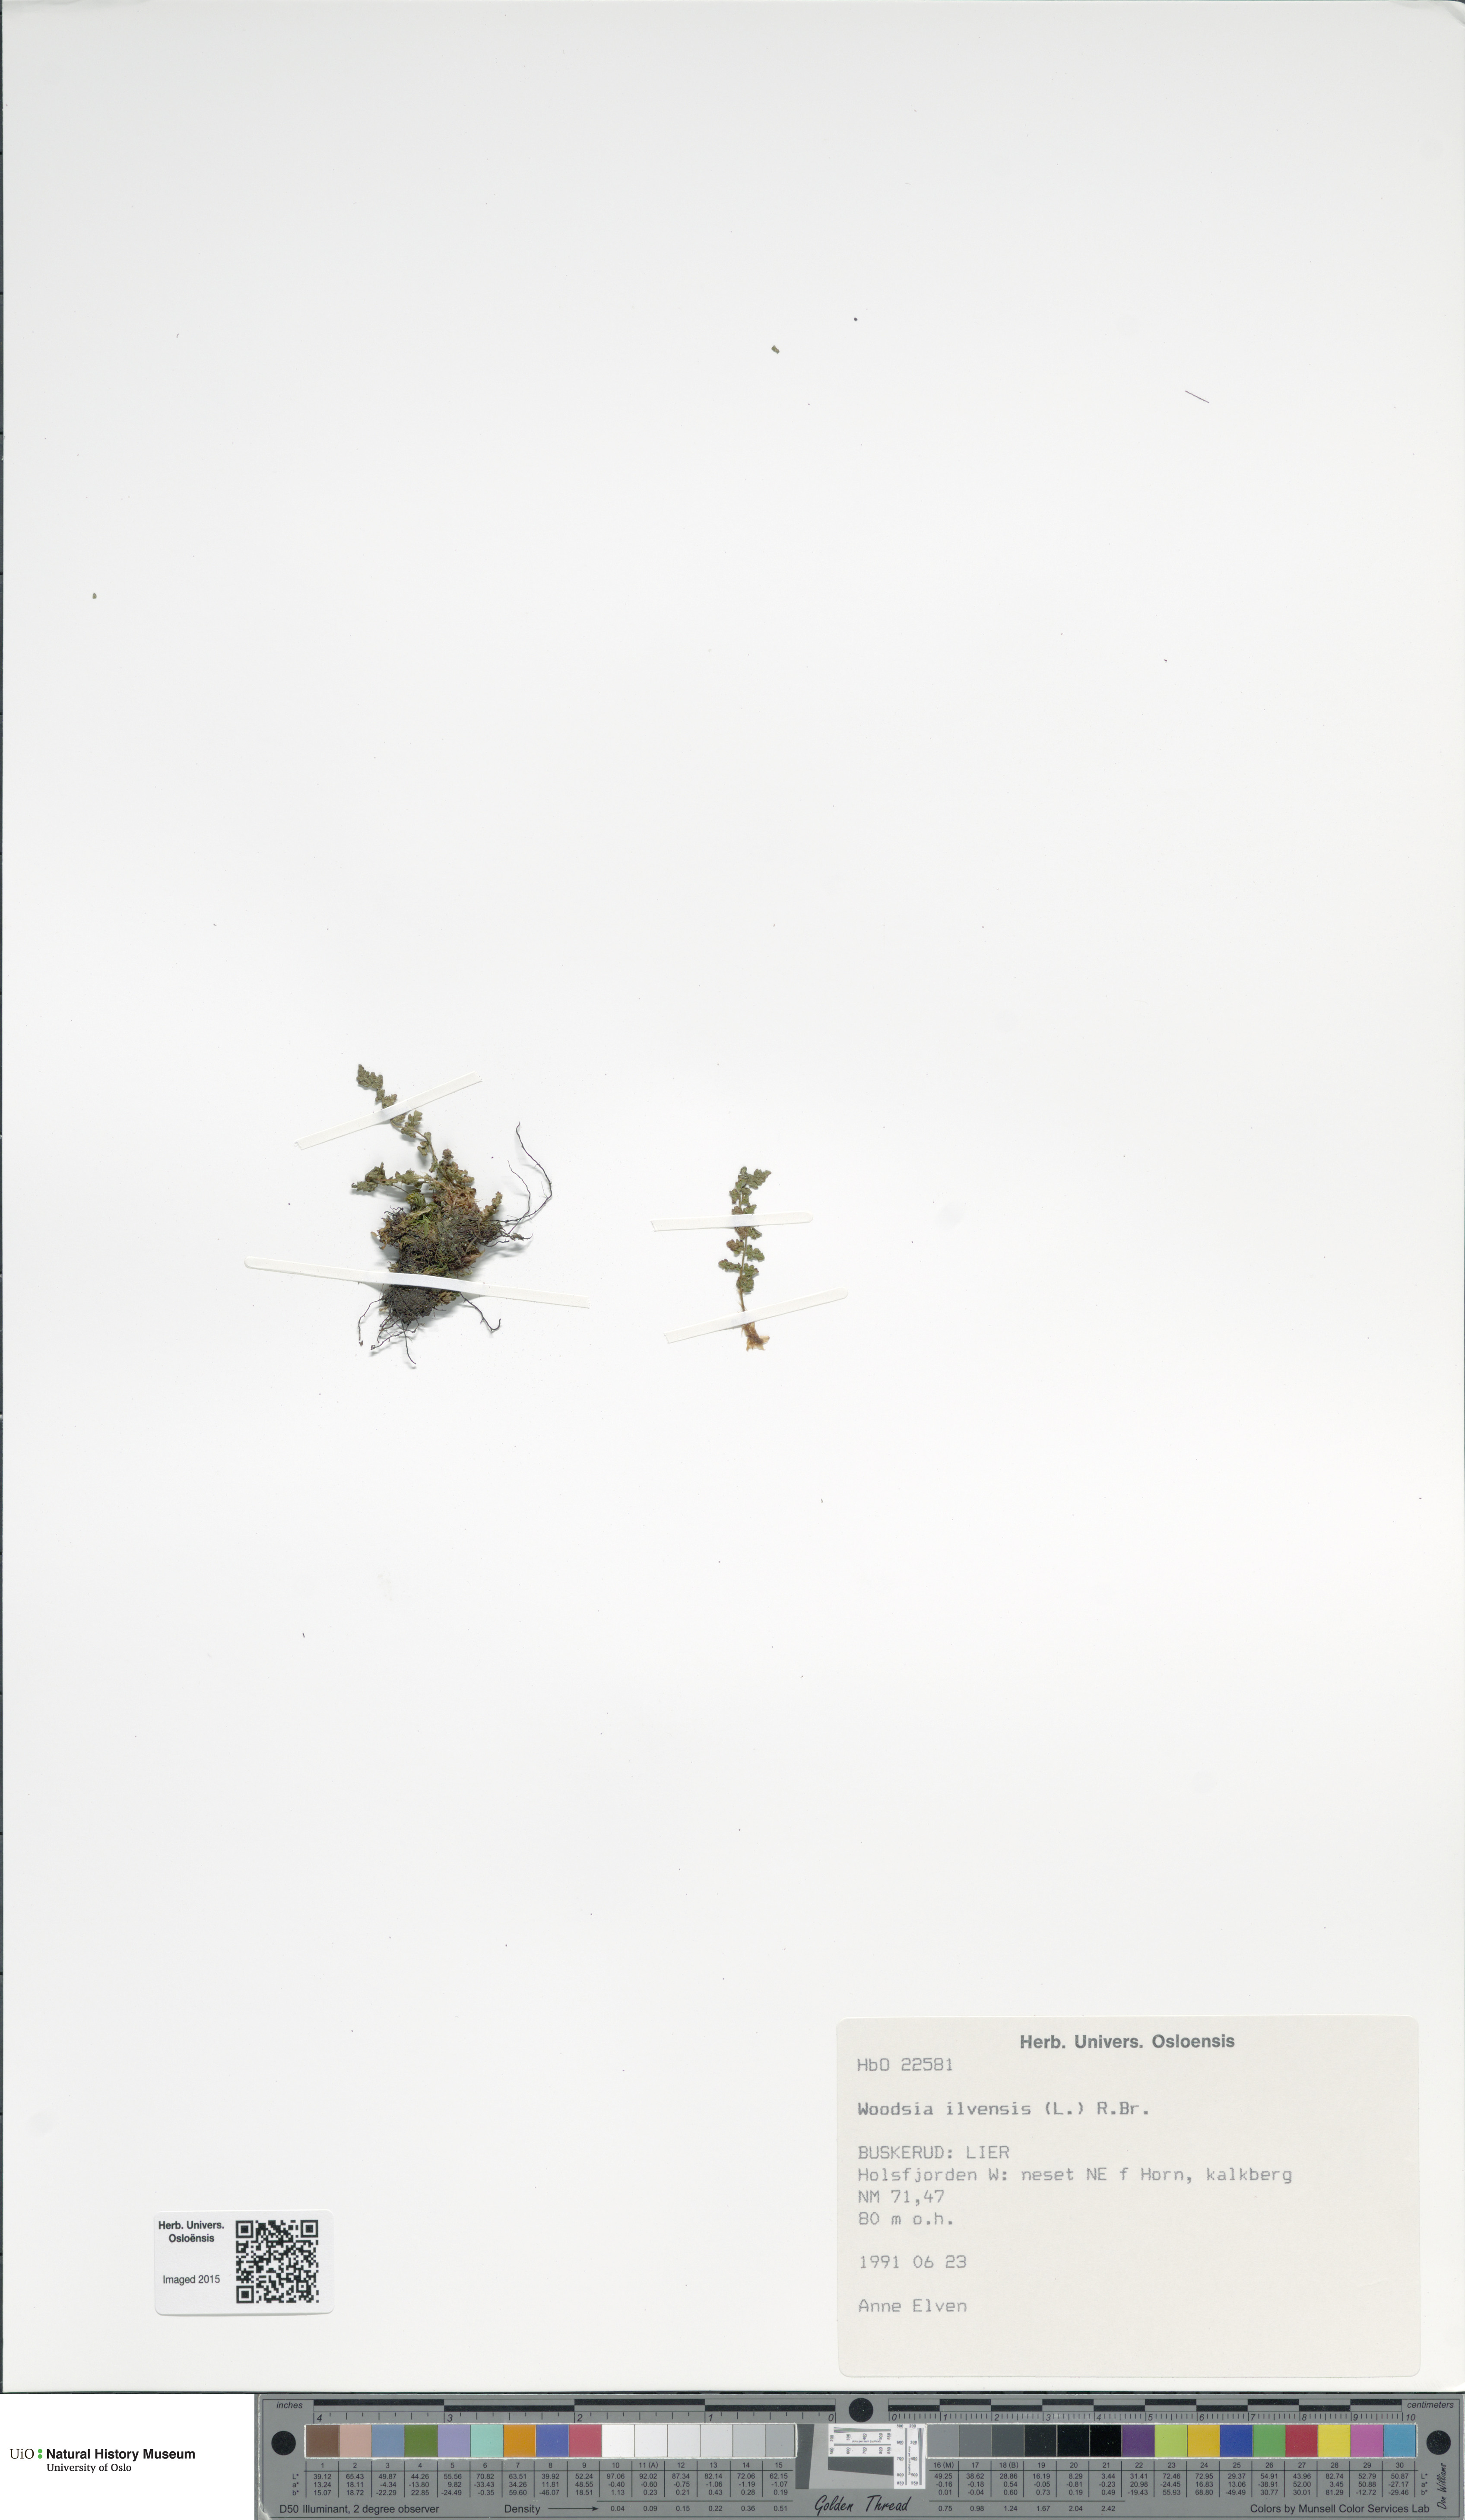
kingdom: Plantae
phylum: Tracheophyta
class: Polypodiopsida
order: Polypodiales
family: Woodsiaceae
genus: Woodsia
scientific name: Woodsia ilvensis
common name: Fragrant woodsia
